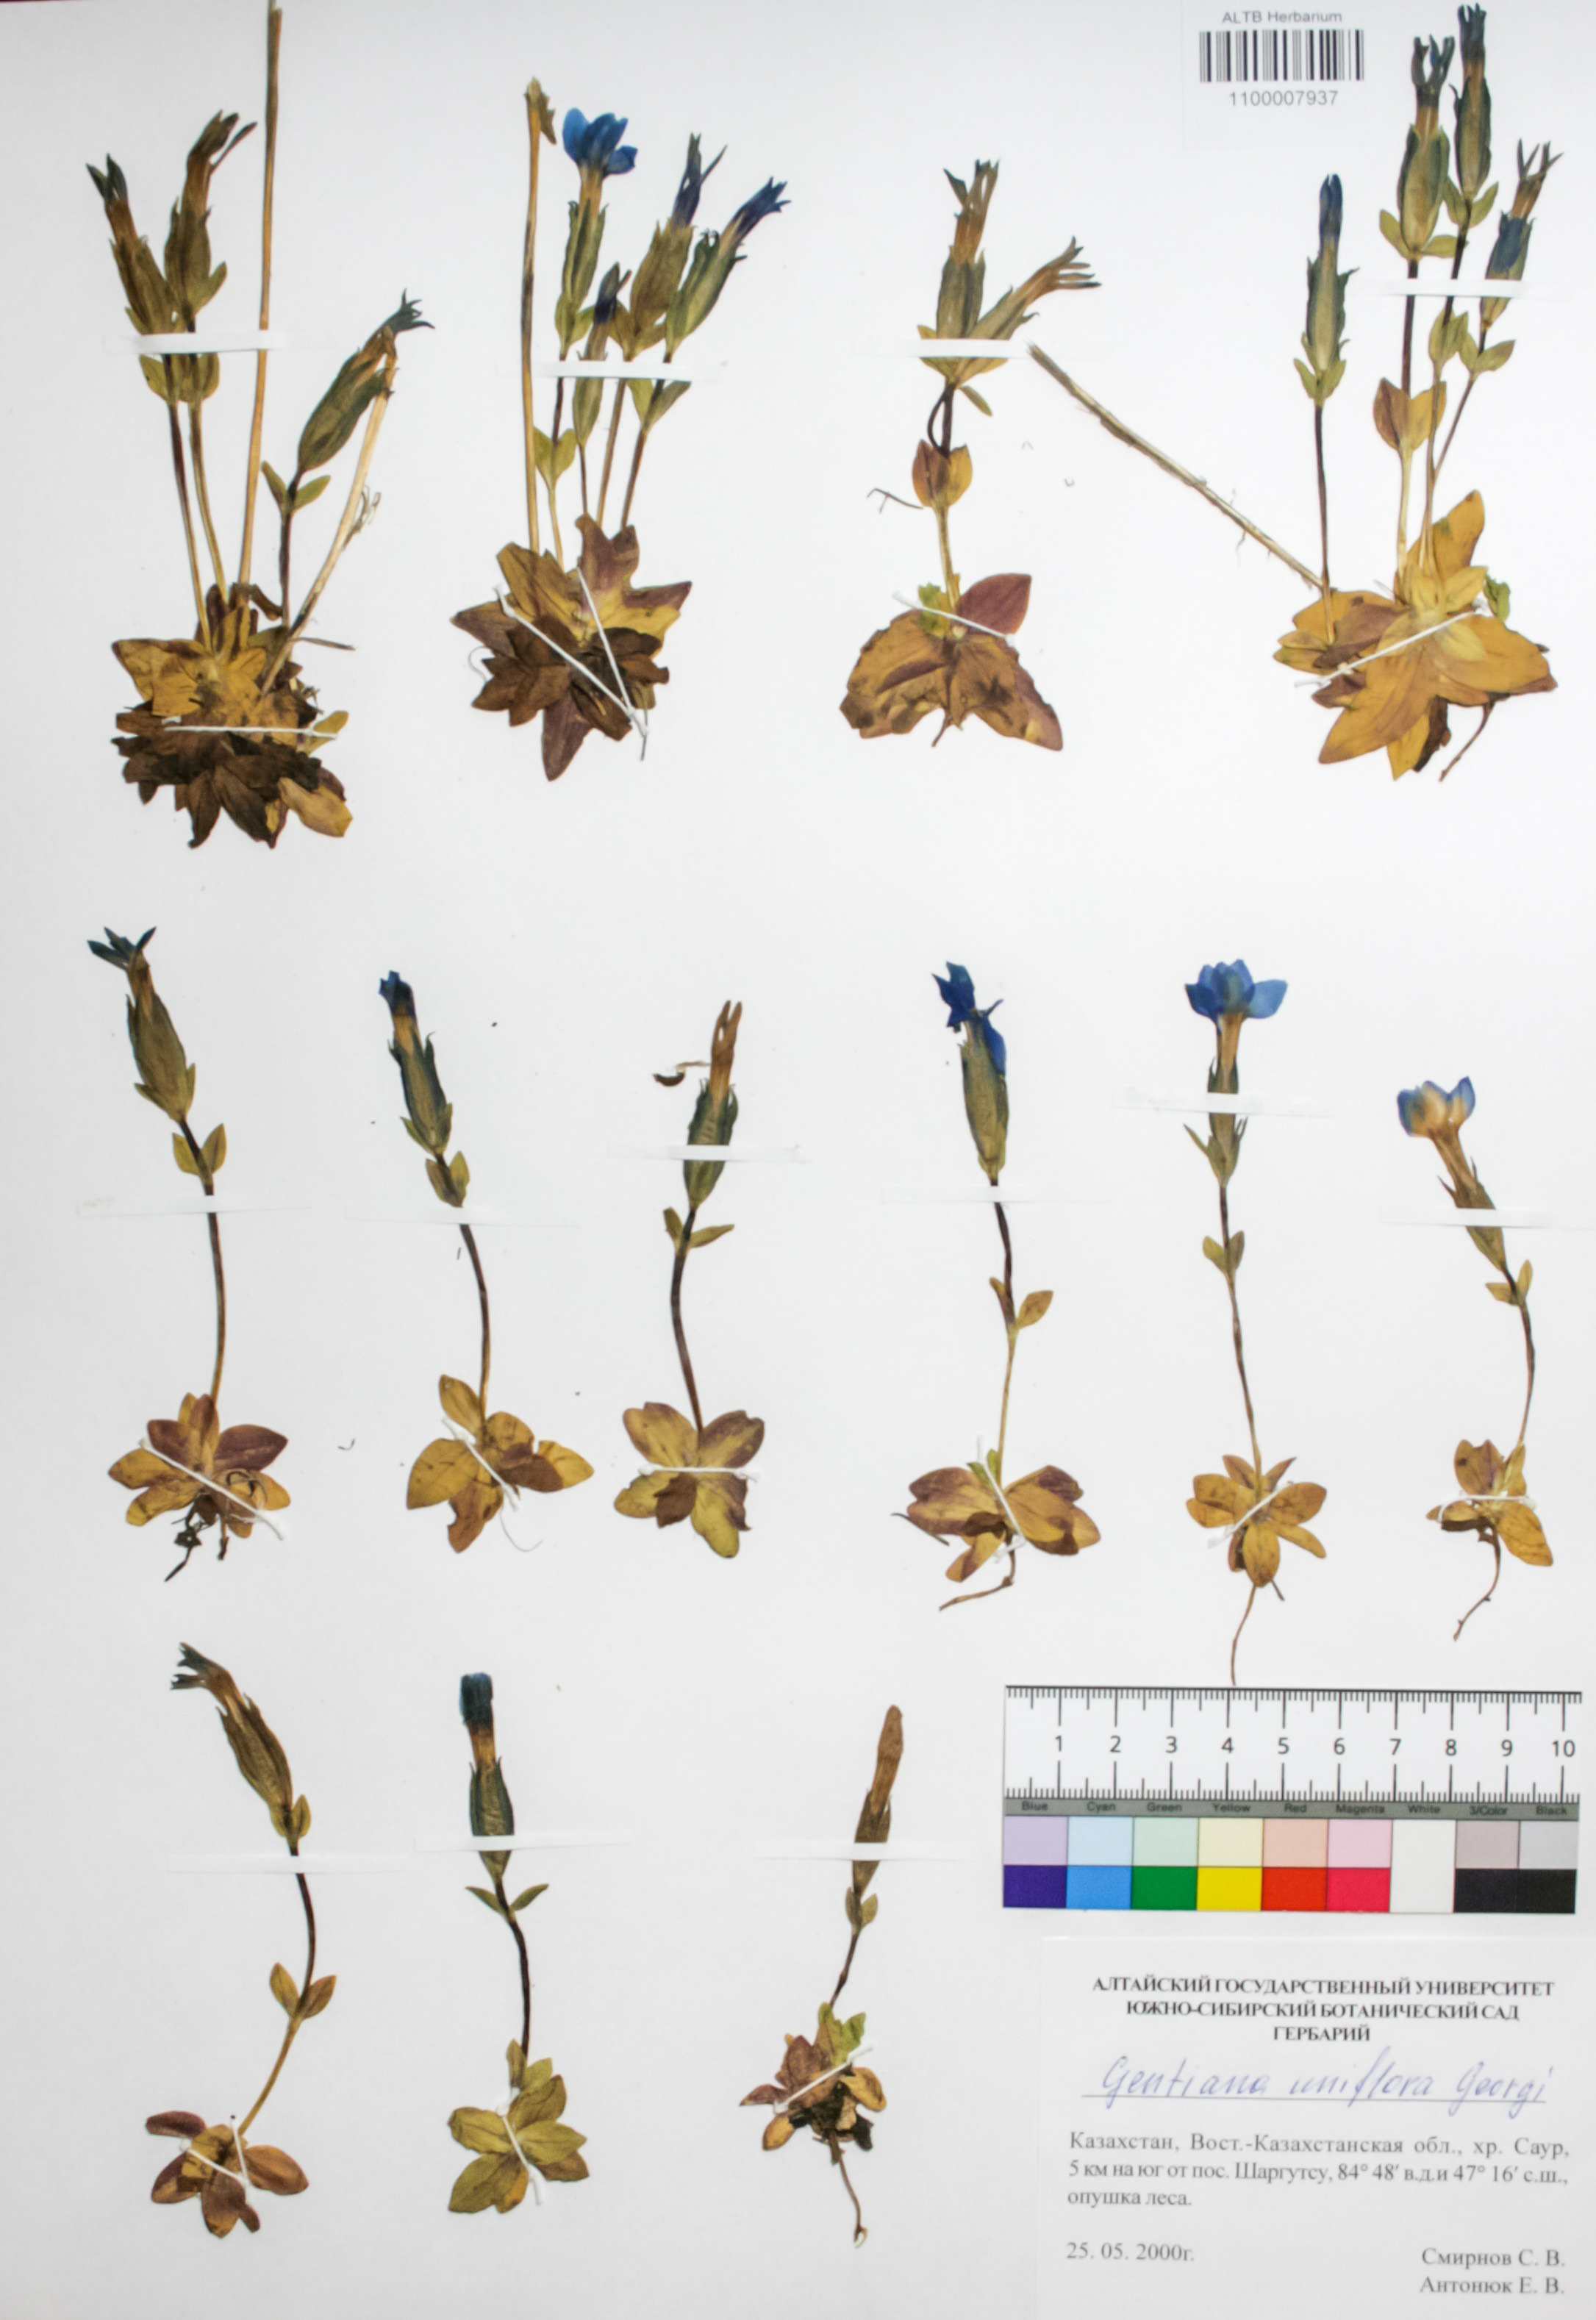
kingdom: Plantae
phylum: Tracheophyta
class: Magnoliopsida
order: Gentianales
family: Gentianaceae
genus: Gentiana
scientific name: Gentiana uniflora
